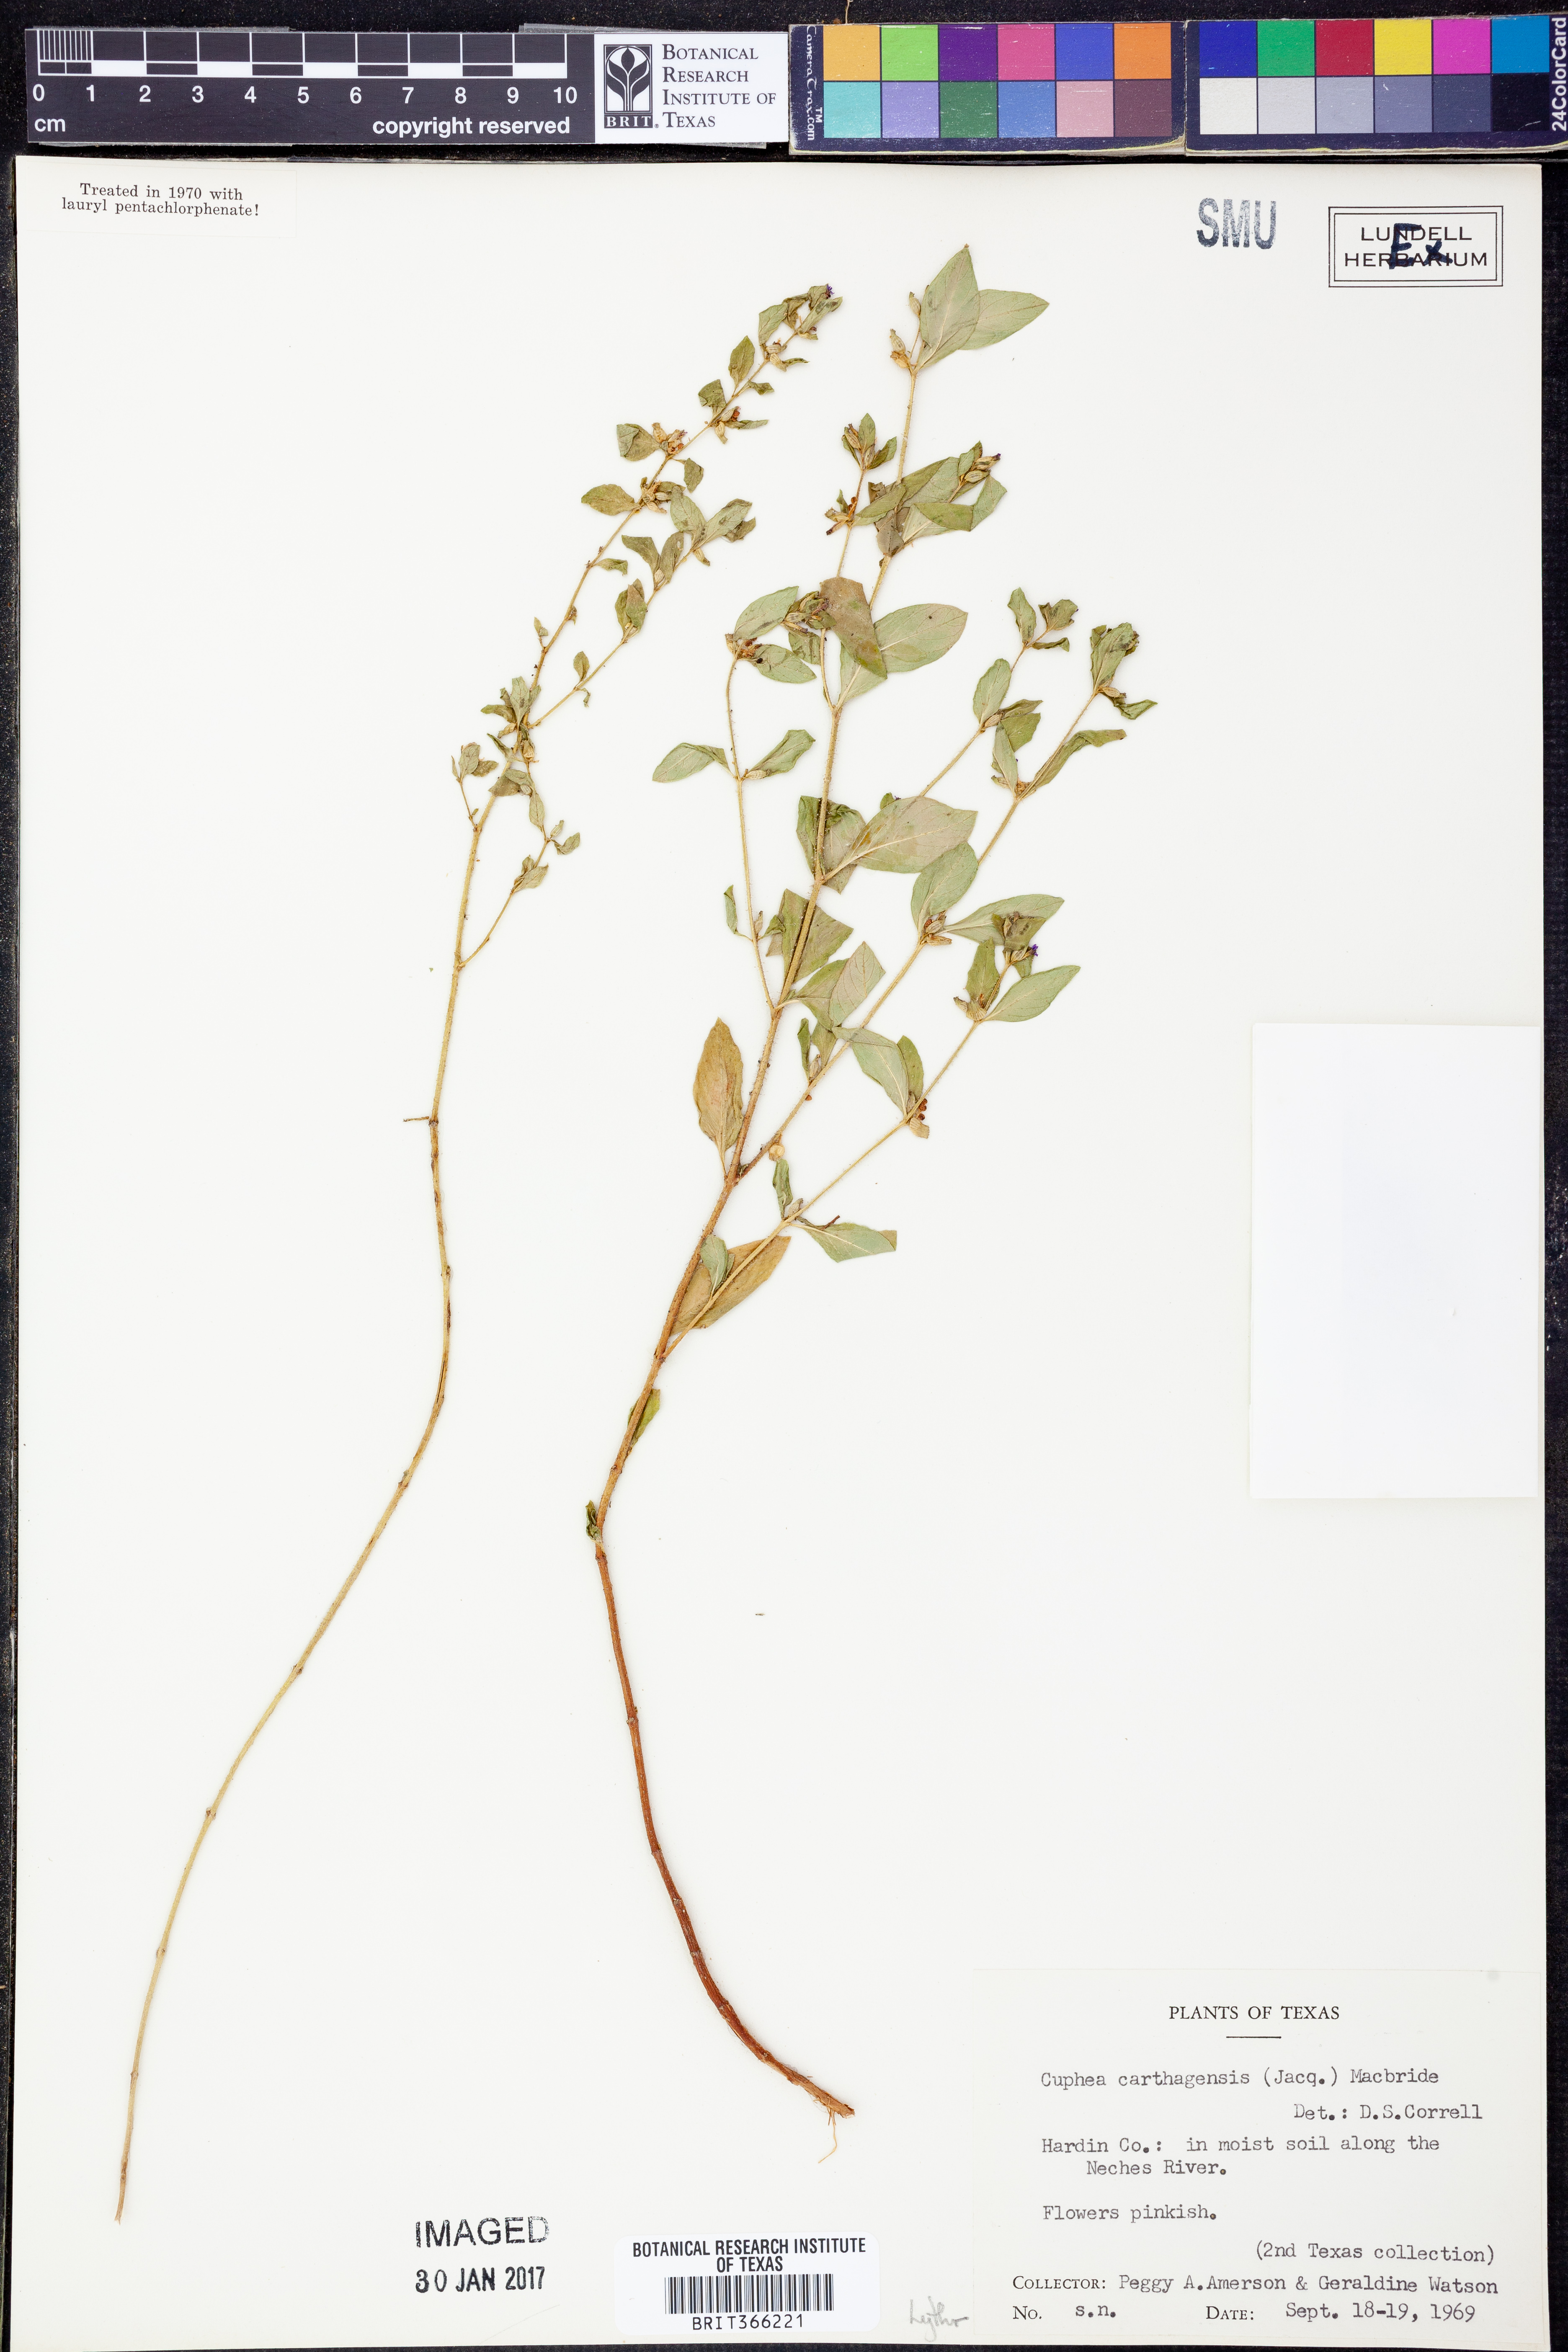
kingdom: Plantae
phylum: Tracheophyta
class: Magnoliopsida
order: Myrtales
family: Lythraceae
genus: Cuphea
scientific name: Cuphea carthagenensis
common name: Colombian waxweed
